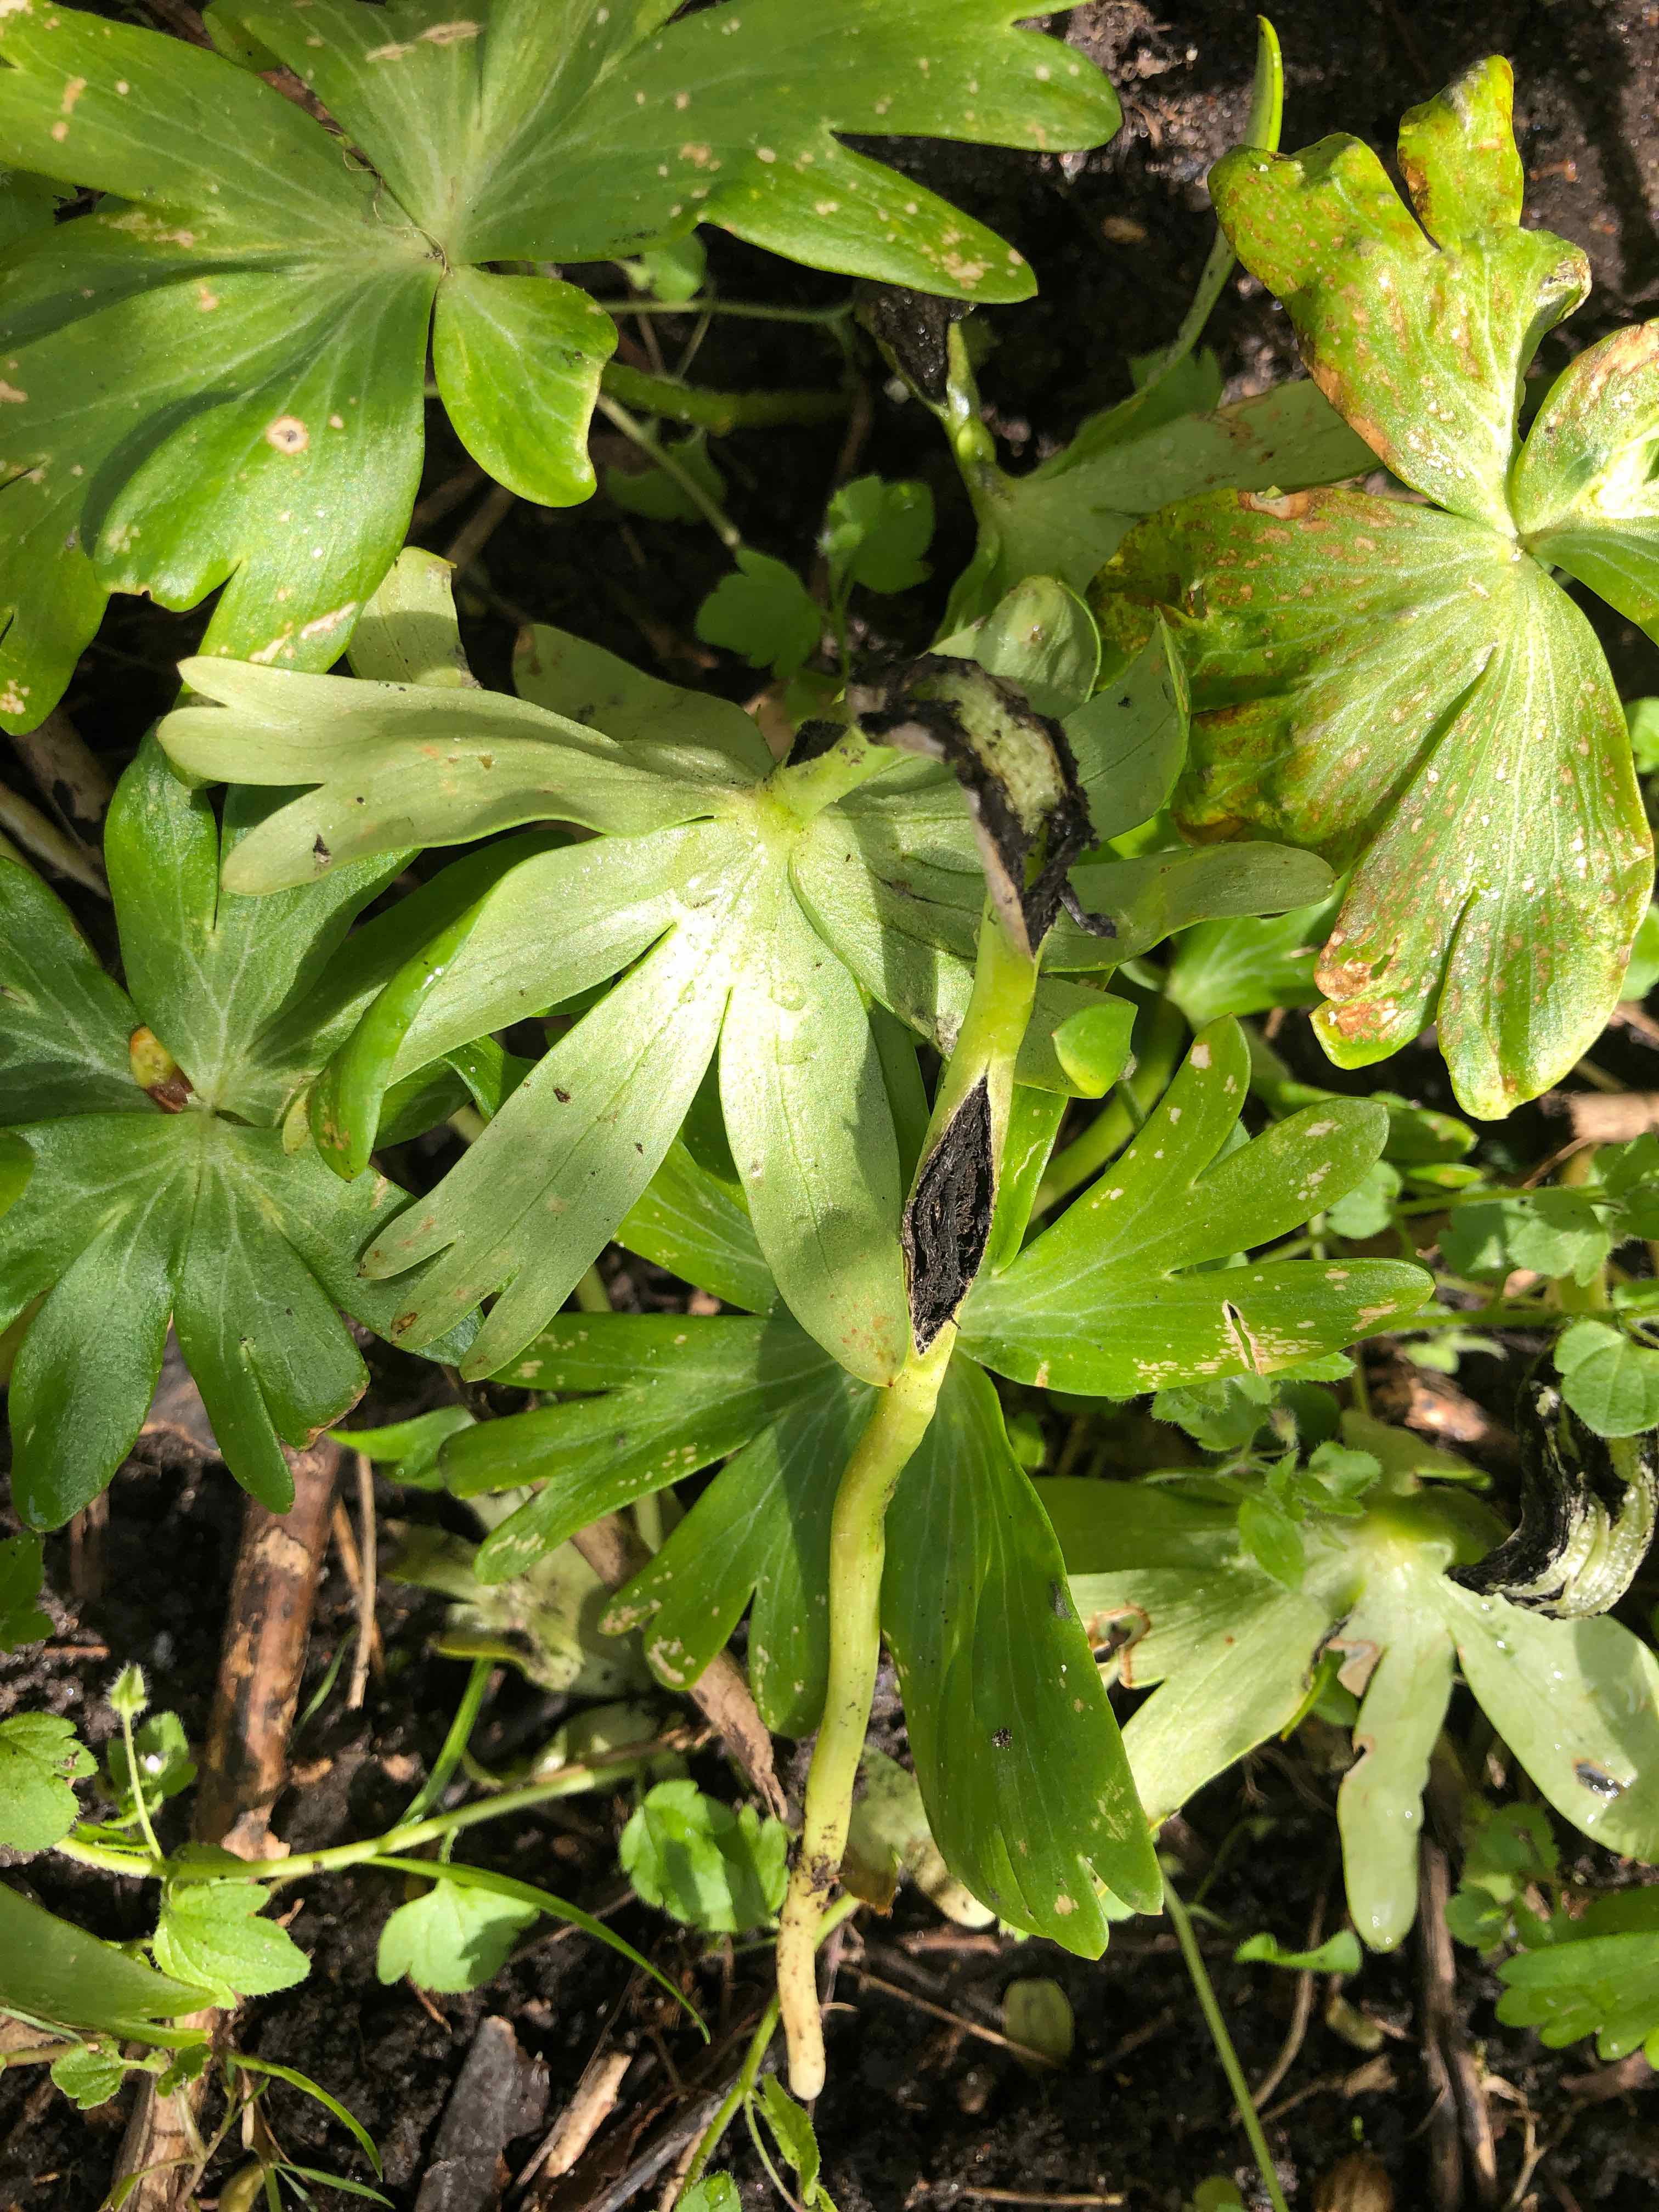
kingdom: Fungi
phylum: Basidiomycota
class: Ustilaginomycetes
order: Urocystidales
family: Urocystidaceae
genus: Urocystis
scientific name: Urocystis eranthidis
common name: erantis-brand
